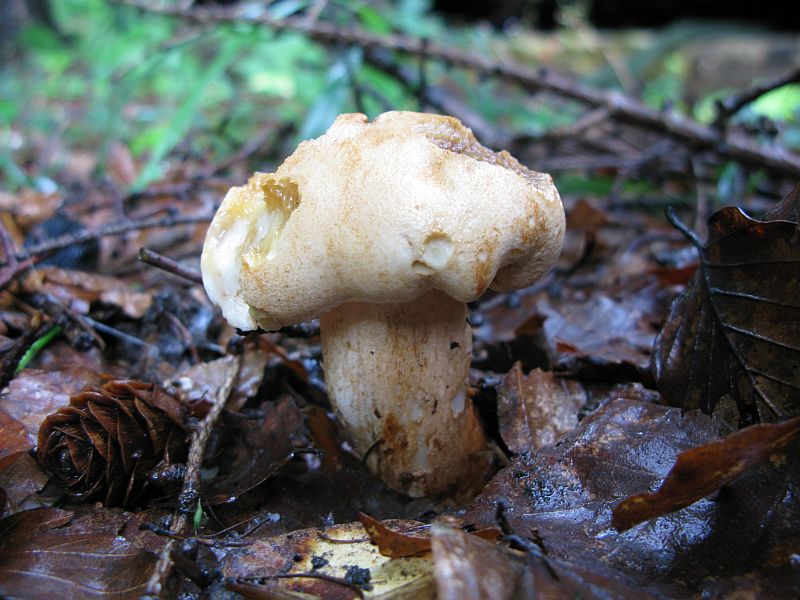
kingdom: Fungi
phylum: Basidiomycota
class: Agaricomycetes
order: Agaricales
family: Tricholomataceae
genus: Tricholoma
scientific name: Tricholoma psammopus
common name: grynstokket ridderhat
